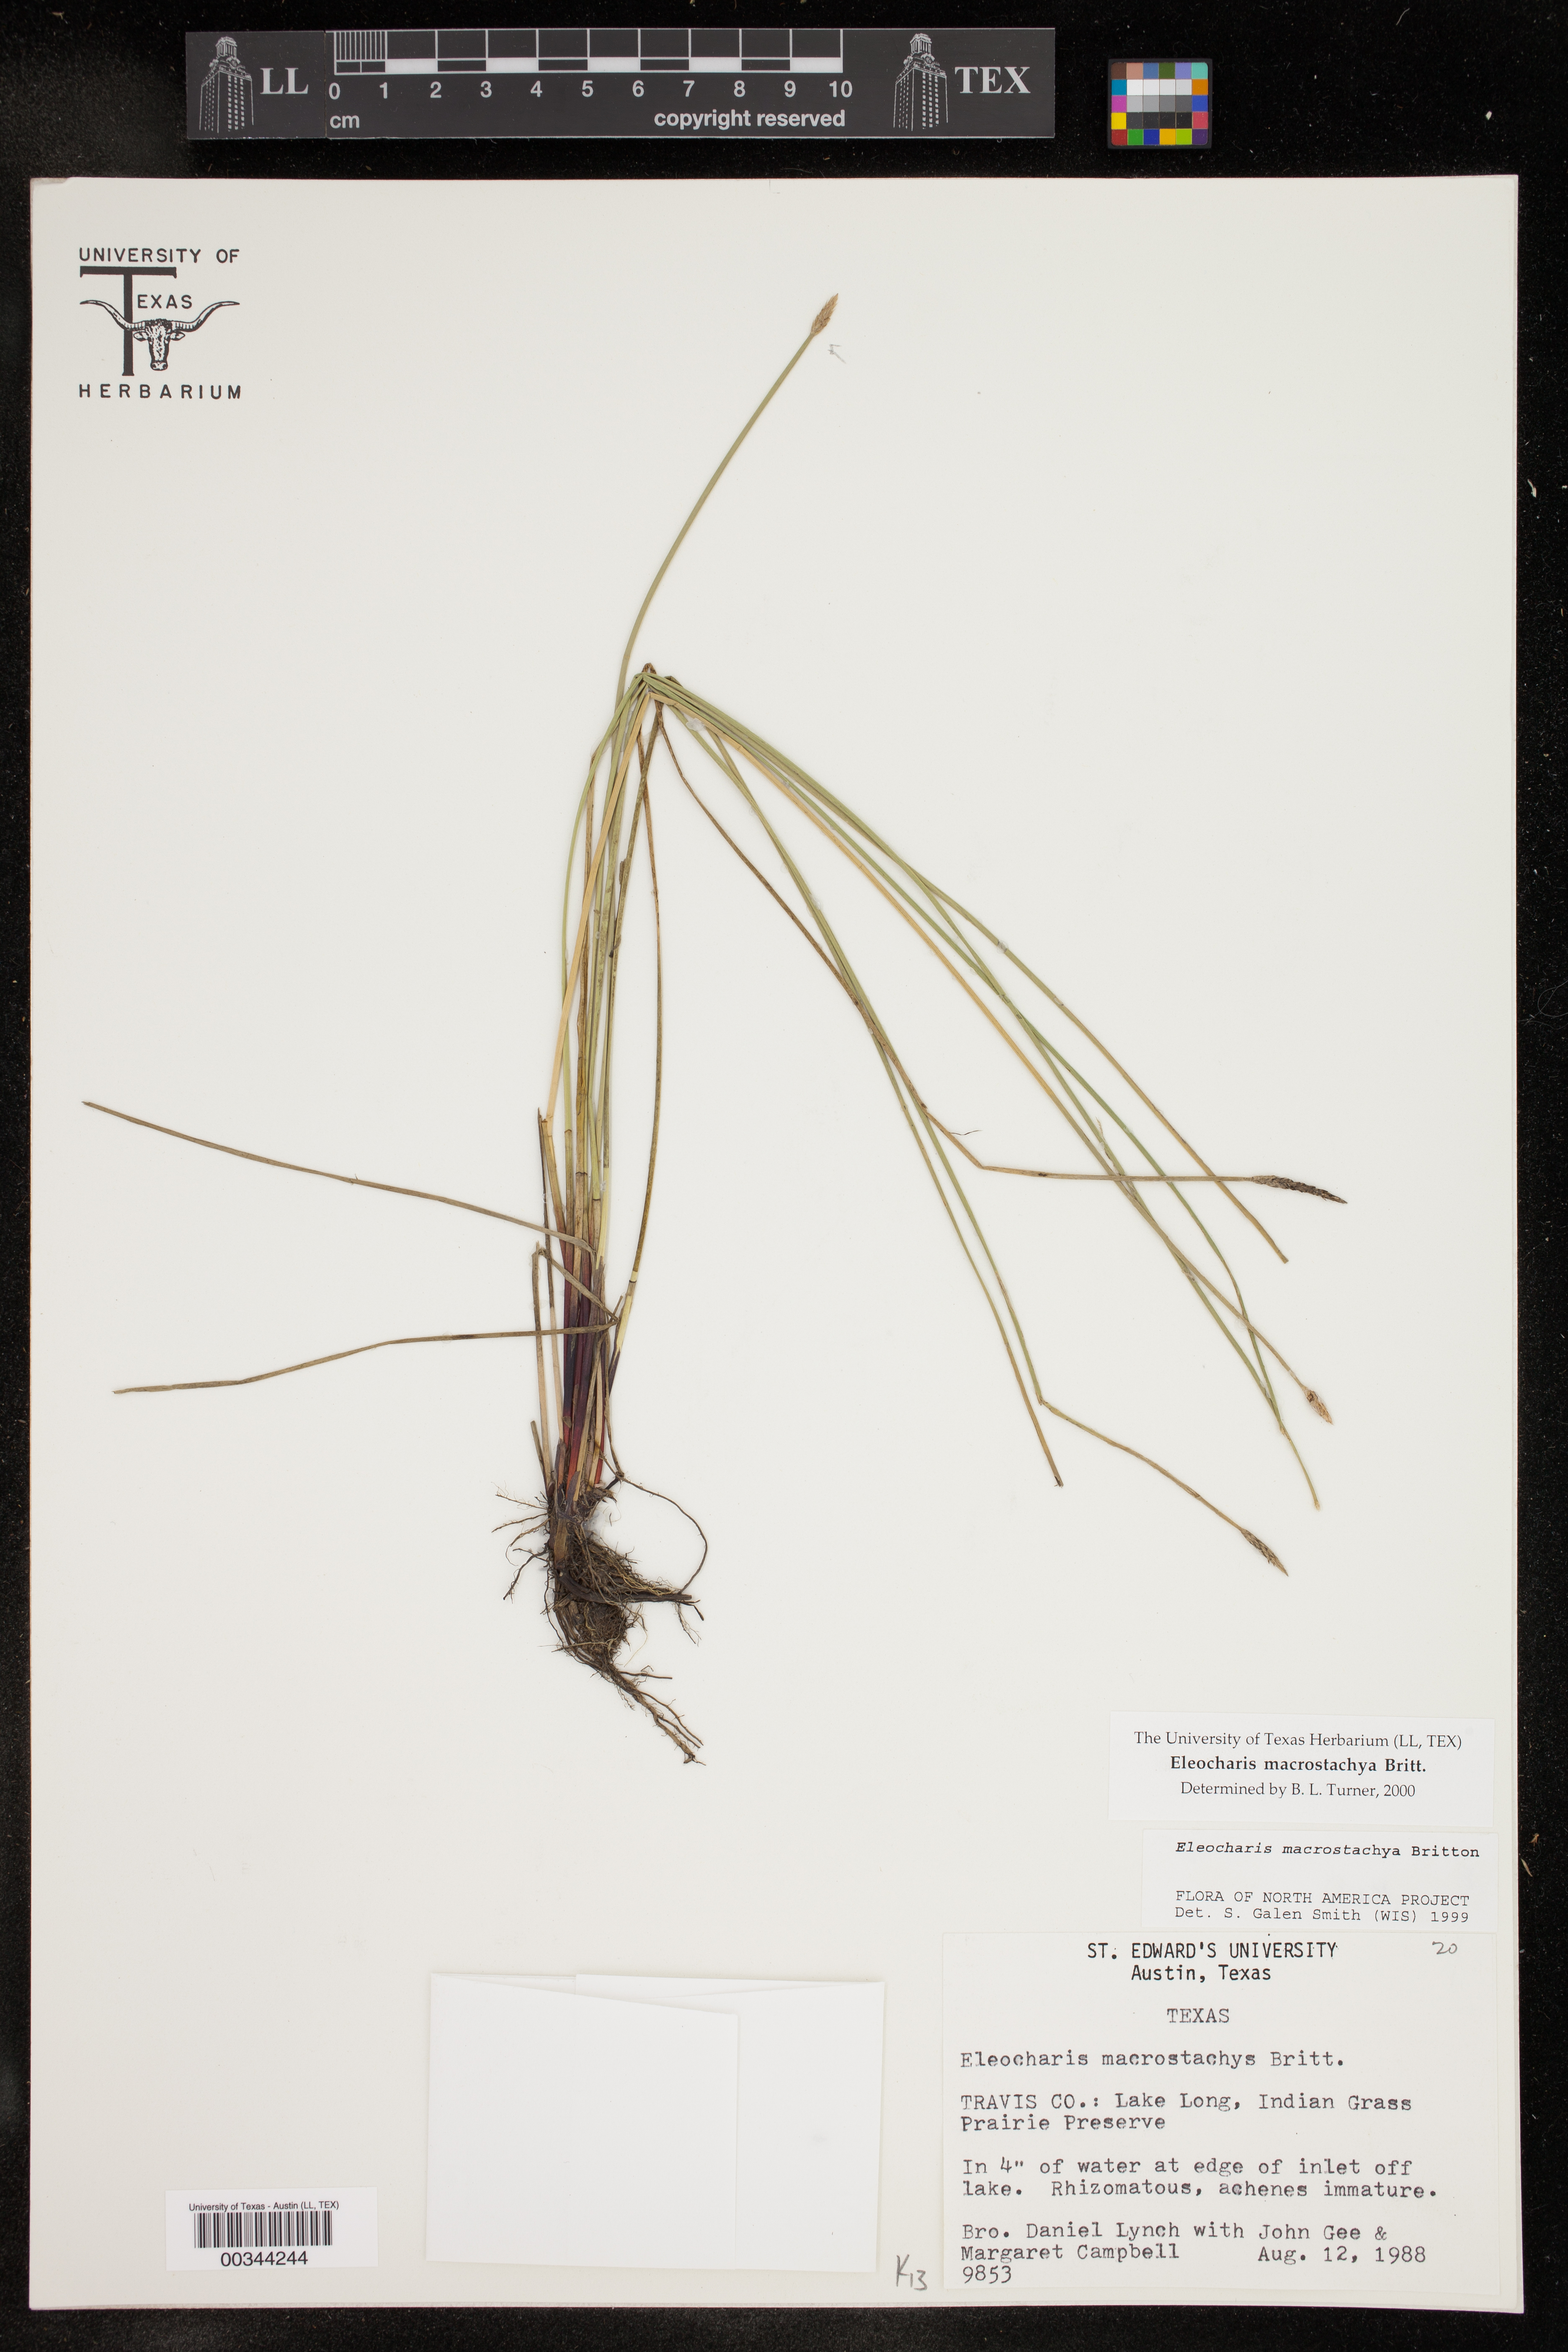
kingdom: Plantae
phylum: Tracheophyta
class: Liliopsida
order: Poales
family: Cyperaceae
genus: Eleocharis
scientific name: Eleocharis macrostachya
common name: Pale spikerush
